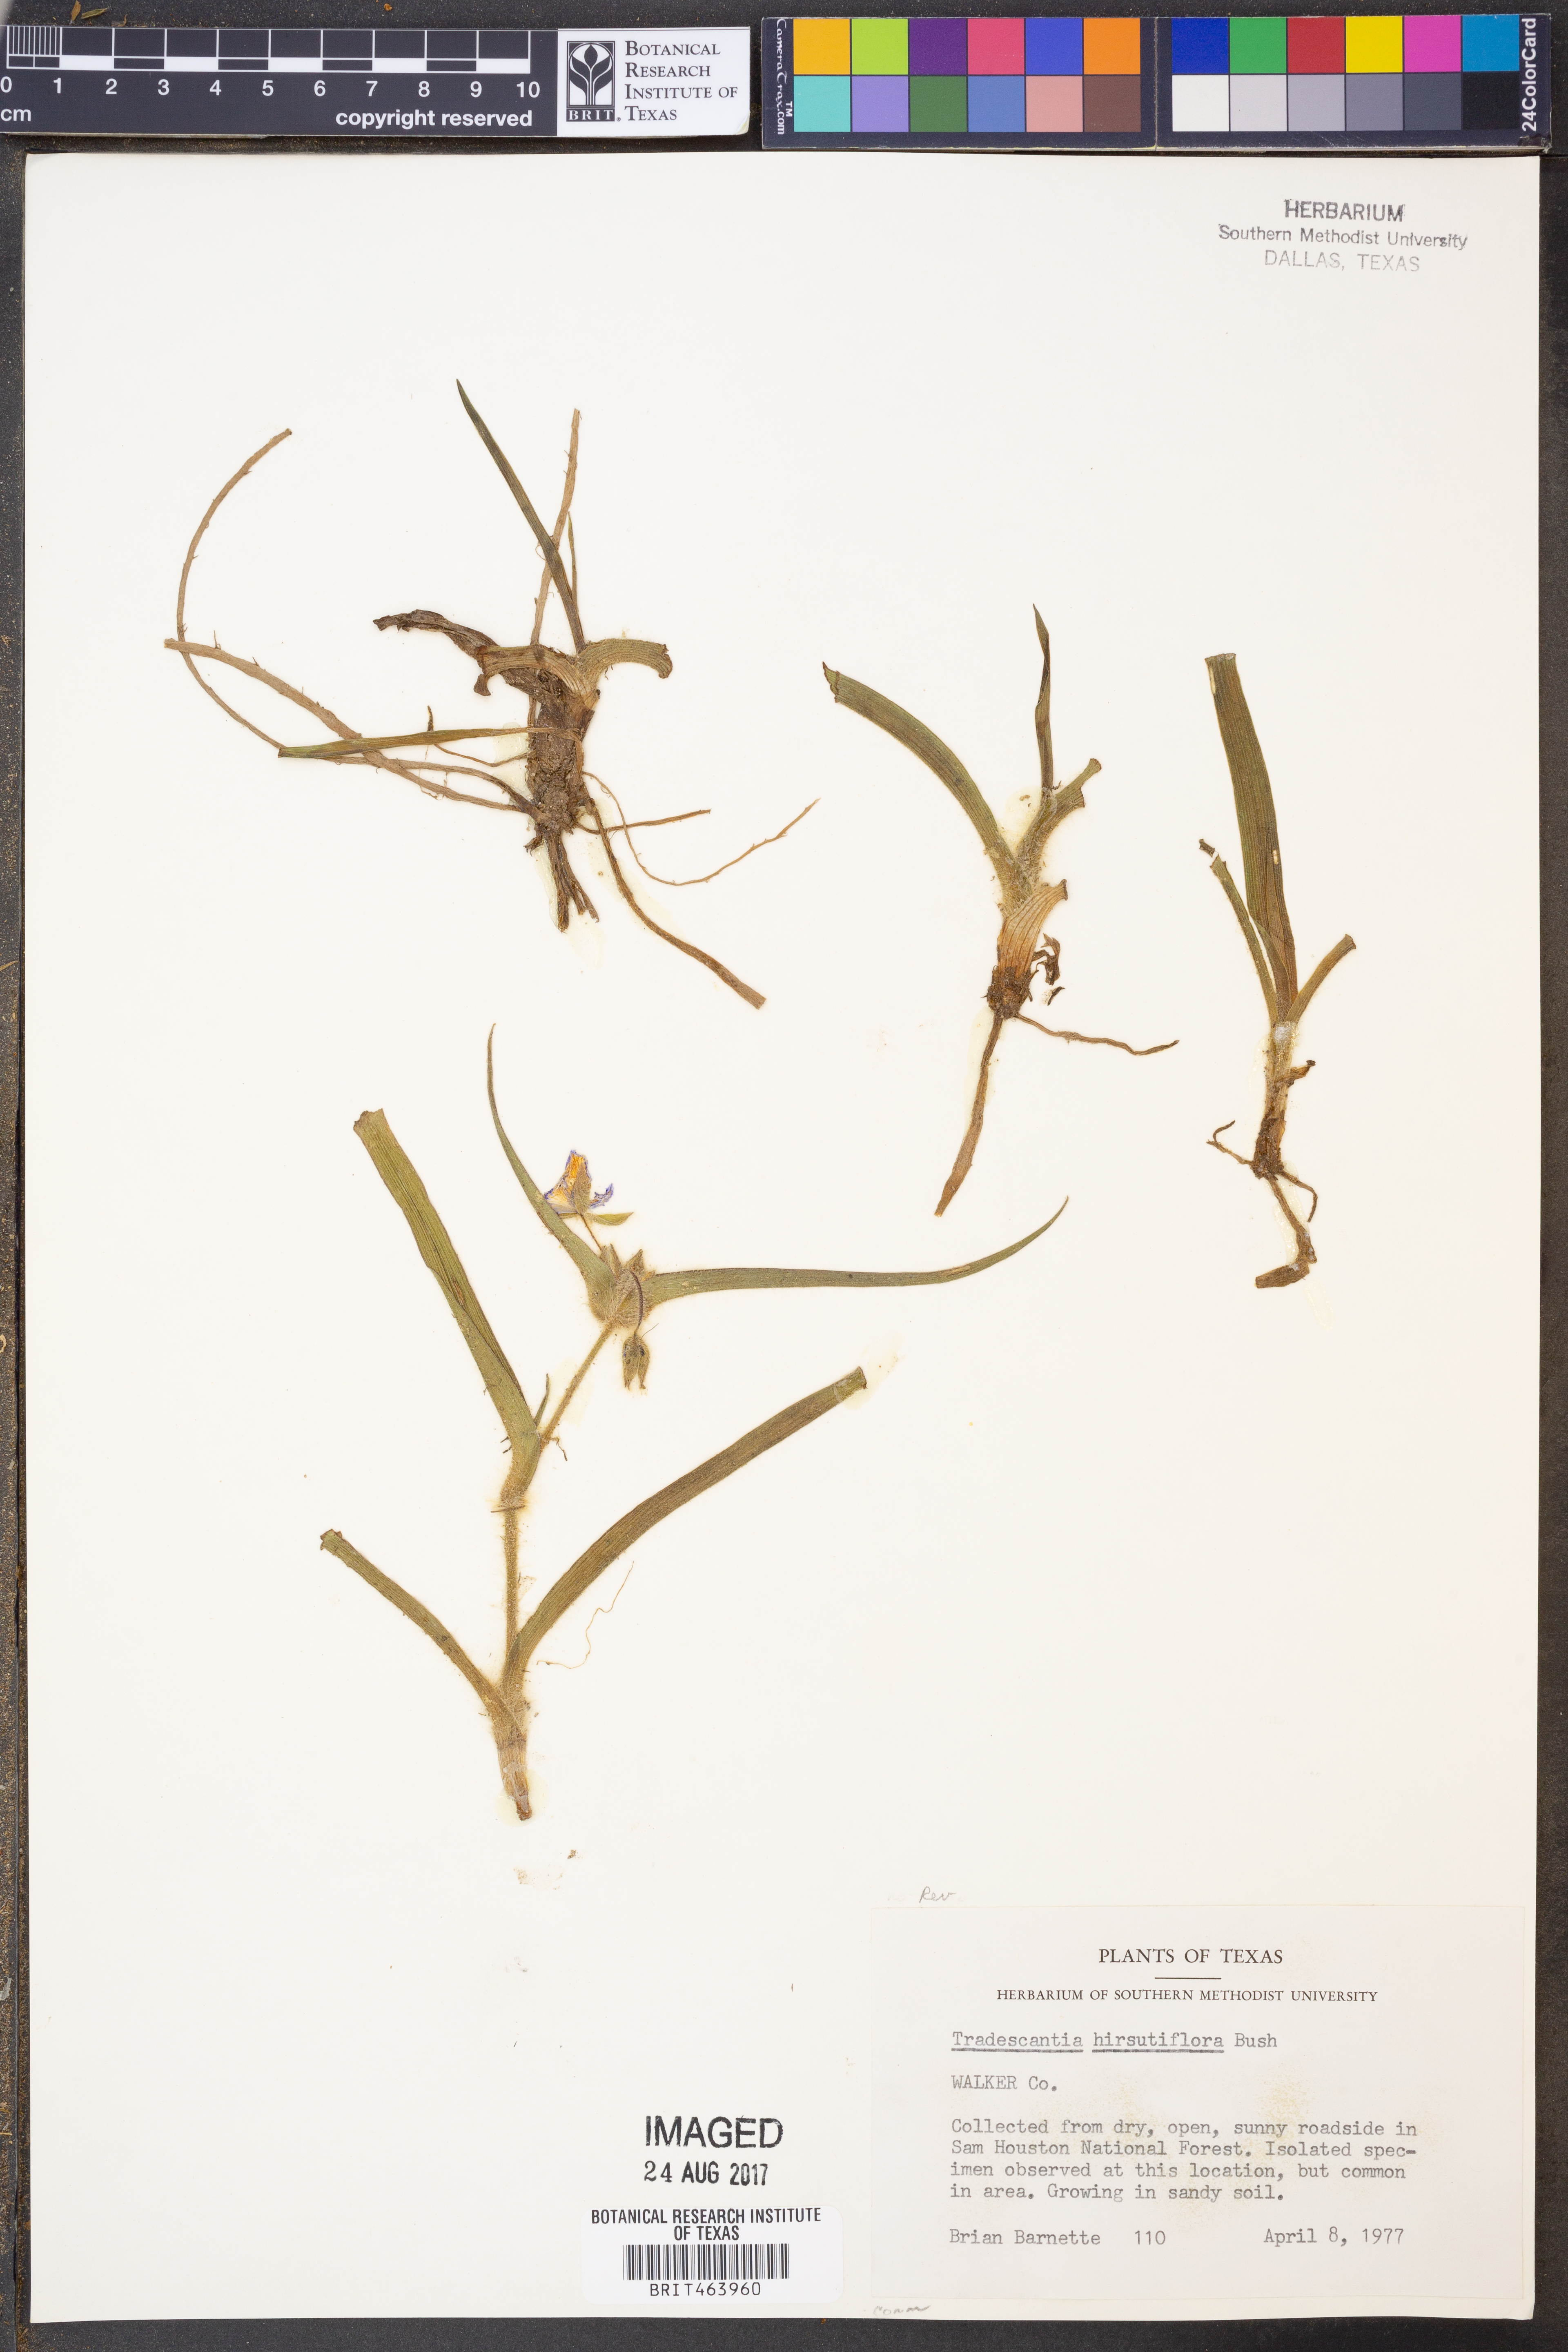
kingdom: Plantae
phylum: Tracheophyta
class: Liliopsida
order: Commelinales
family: Commelinaceae
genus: Tradescantia
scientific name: Tradescantia hirsutiflora
